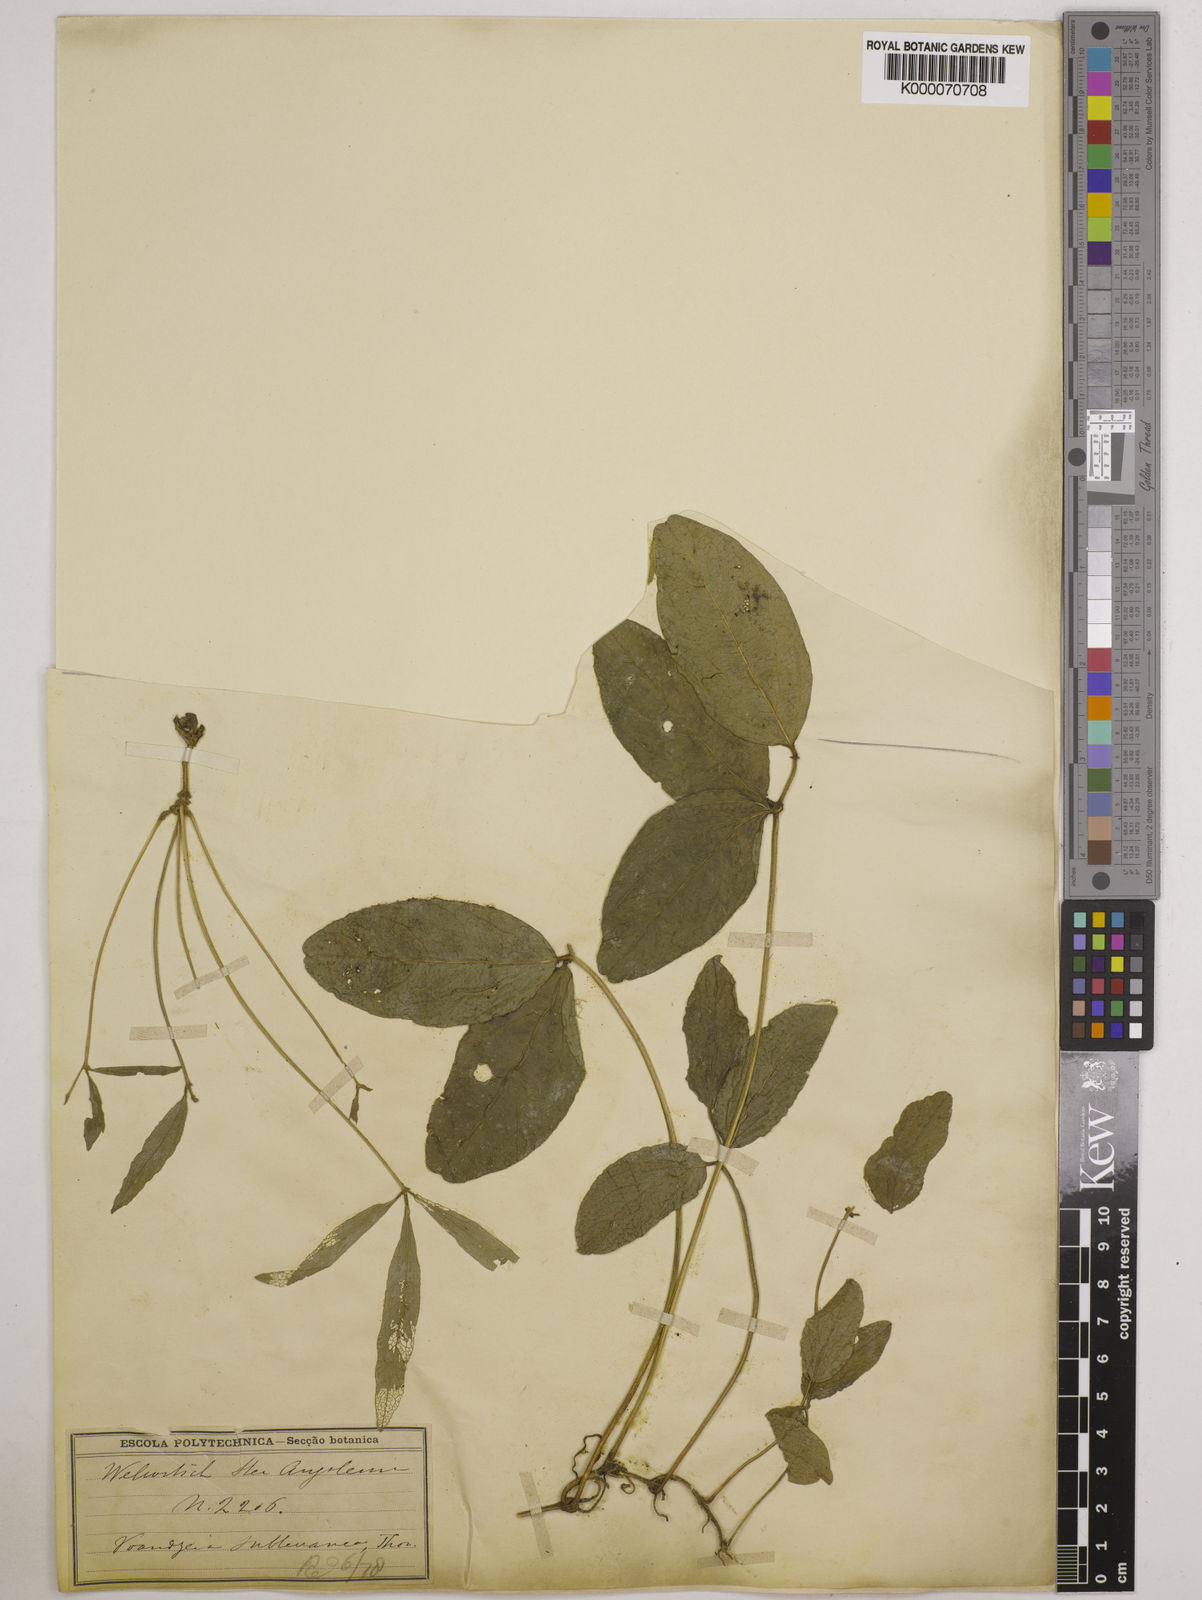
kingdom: Plantae
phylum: Tracheophyta
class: Magnoliopsida
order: Fabales
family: Fabaceae
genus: Vigna
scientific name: Vigna subterranea
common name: Bambara groundnut
